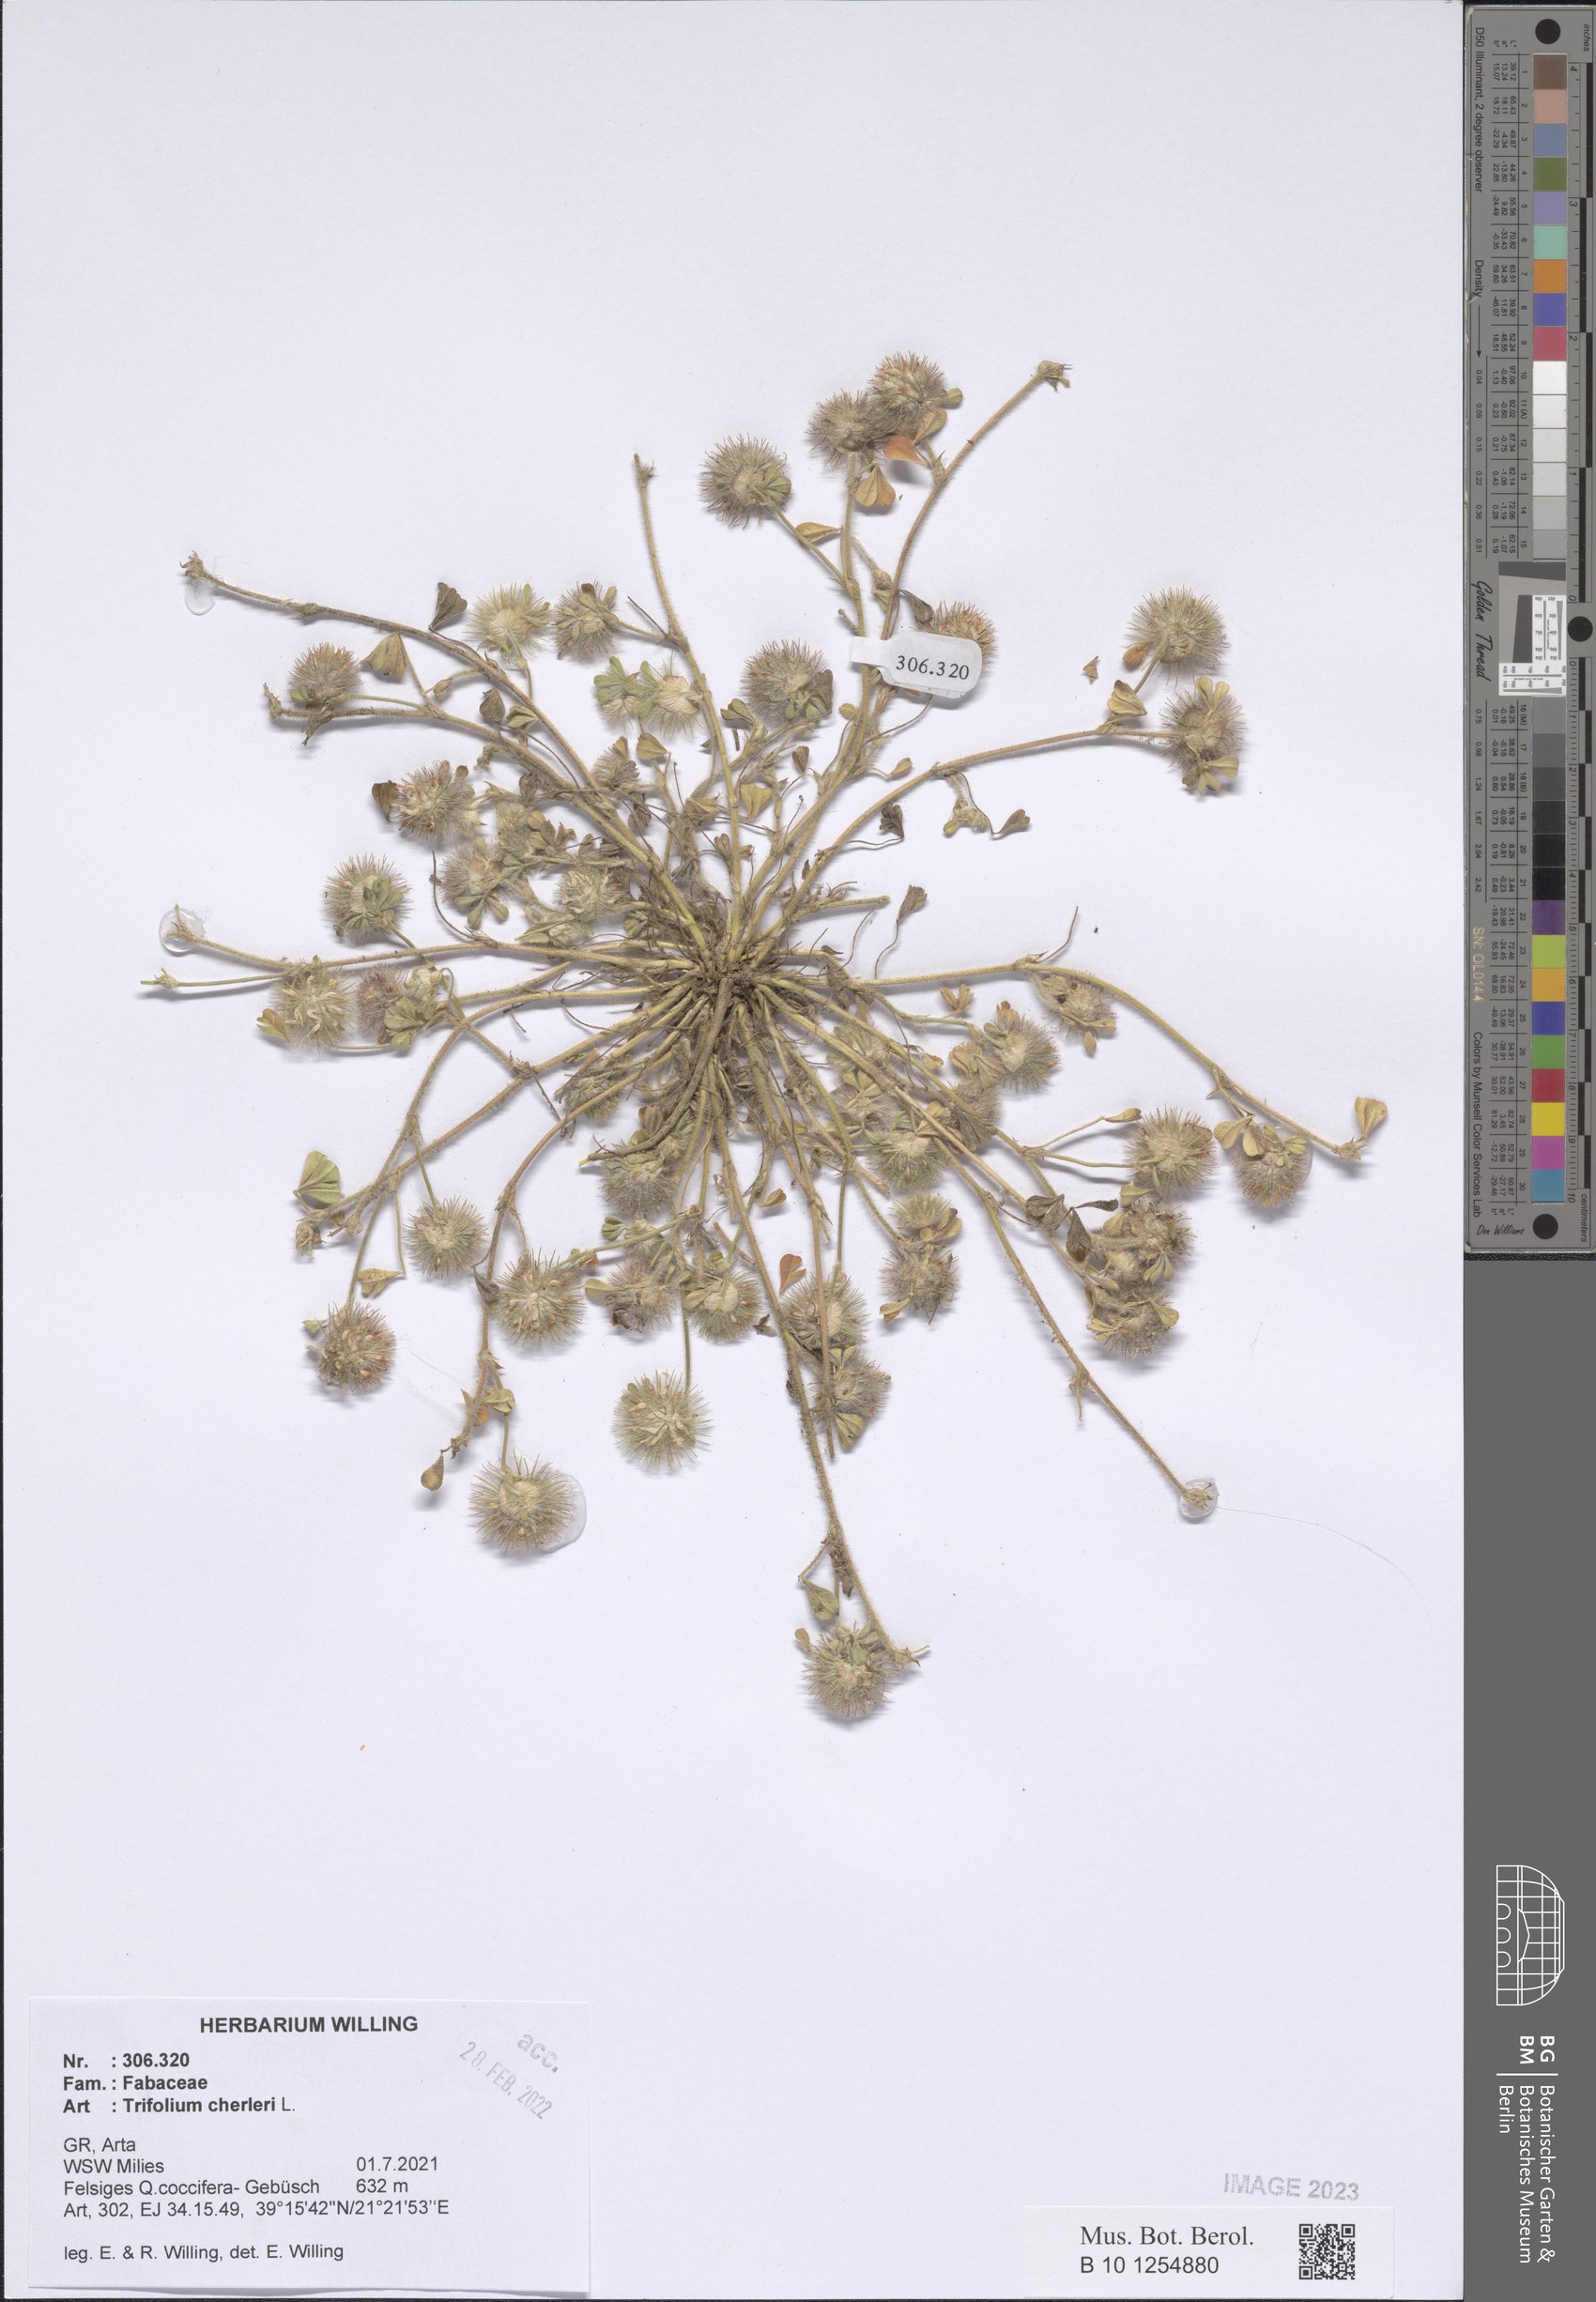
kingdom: Plantae
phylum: Tracheophyta
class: Magnoliopsida
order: Fabales
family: Fabaceae
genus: Trifolium
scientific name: Trifolium cherleri
